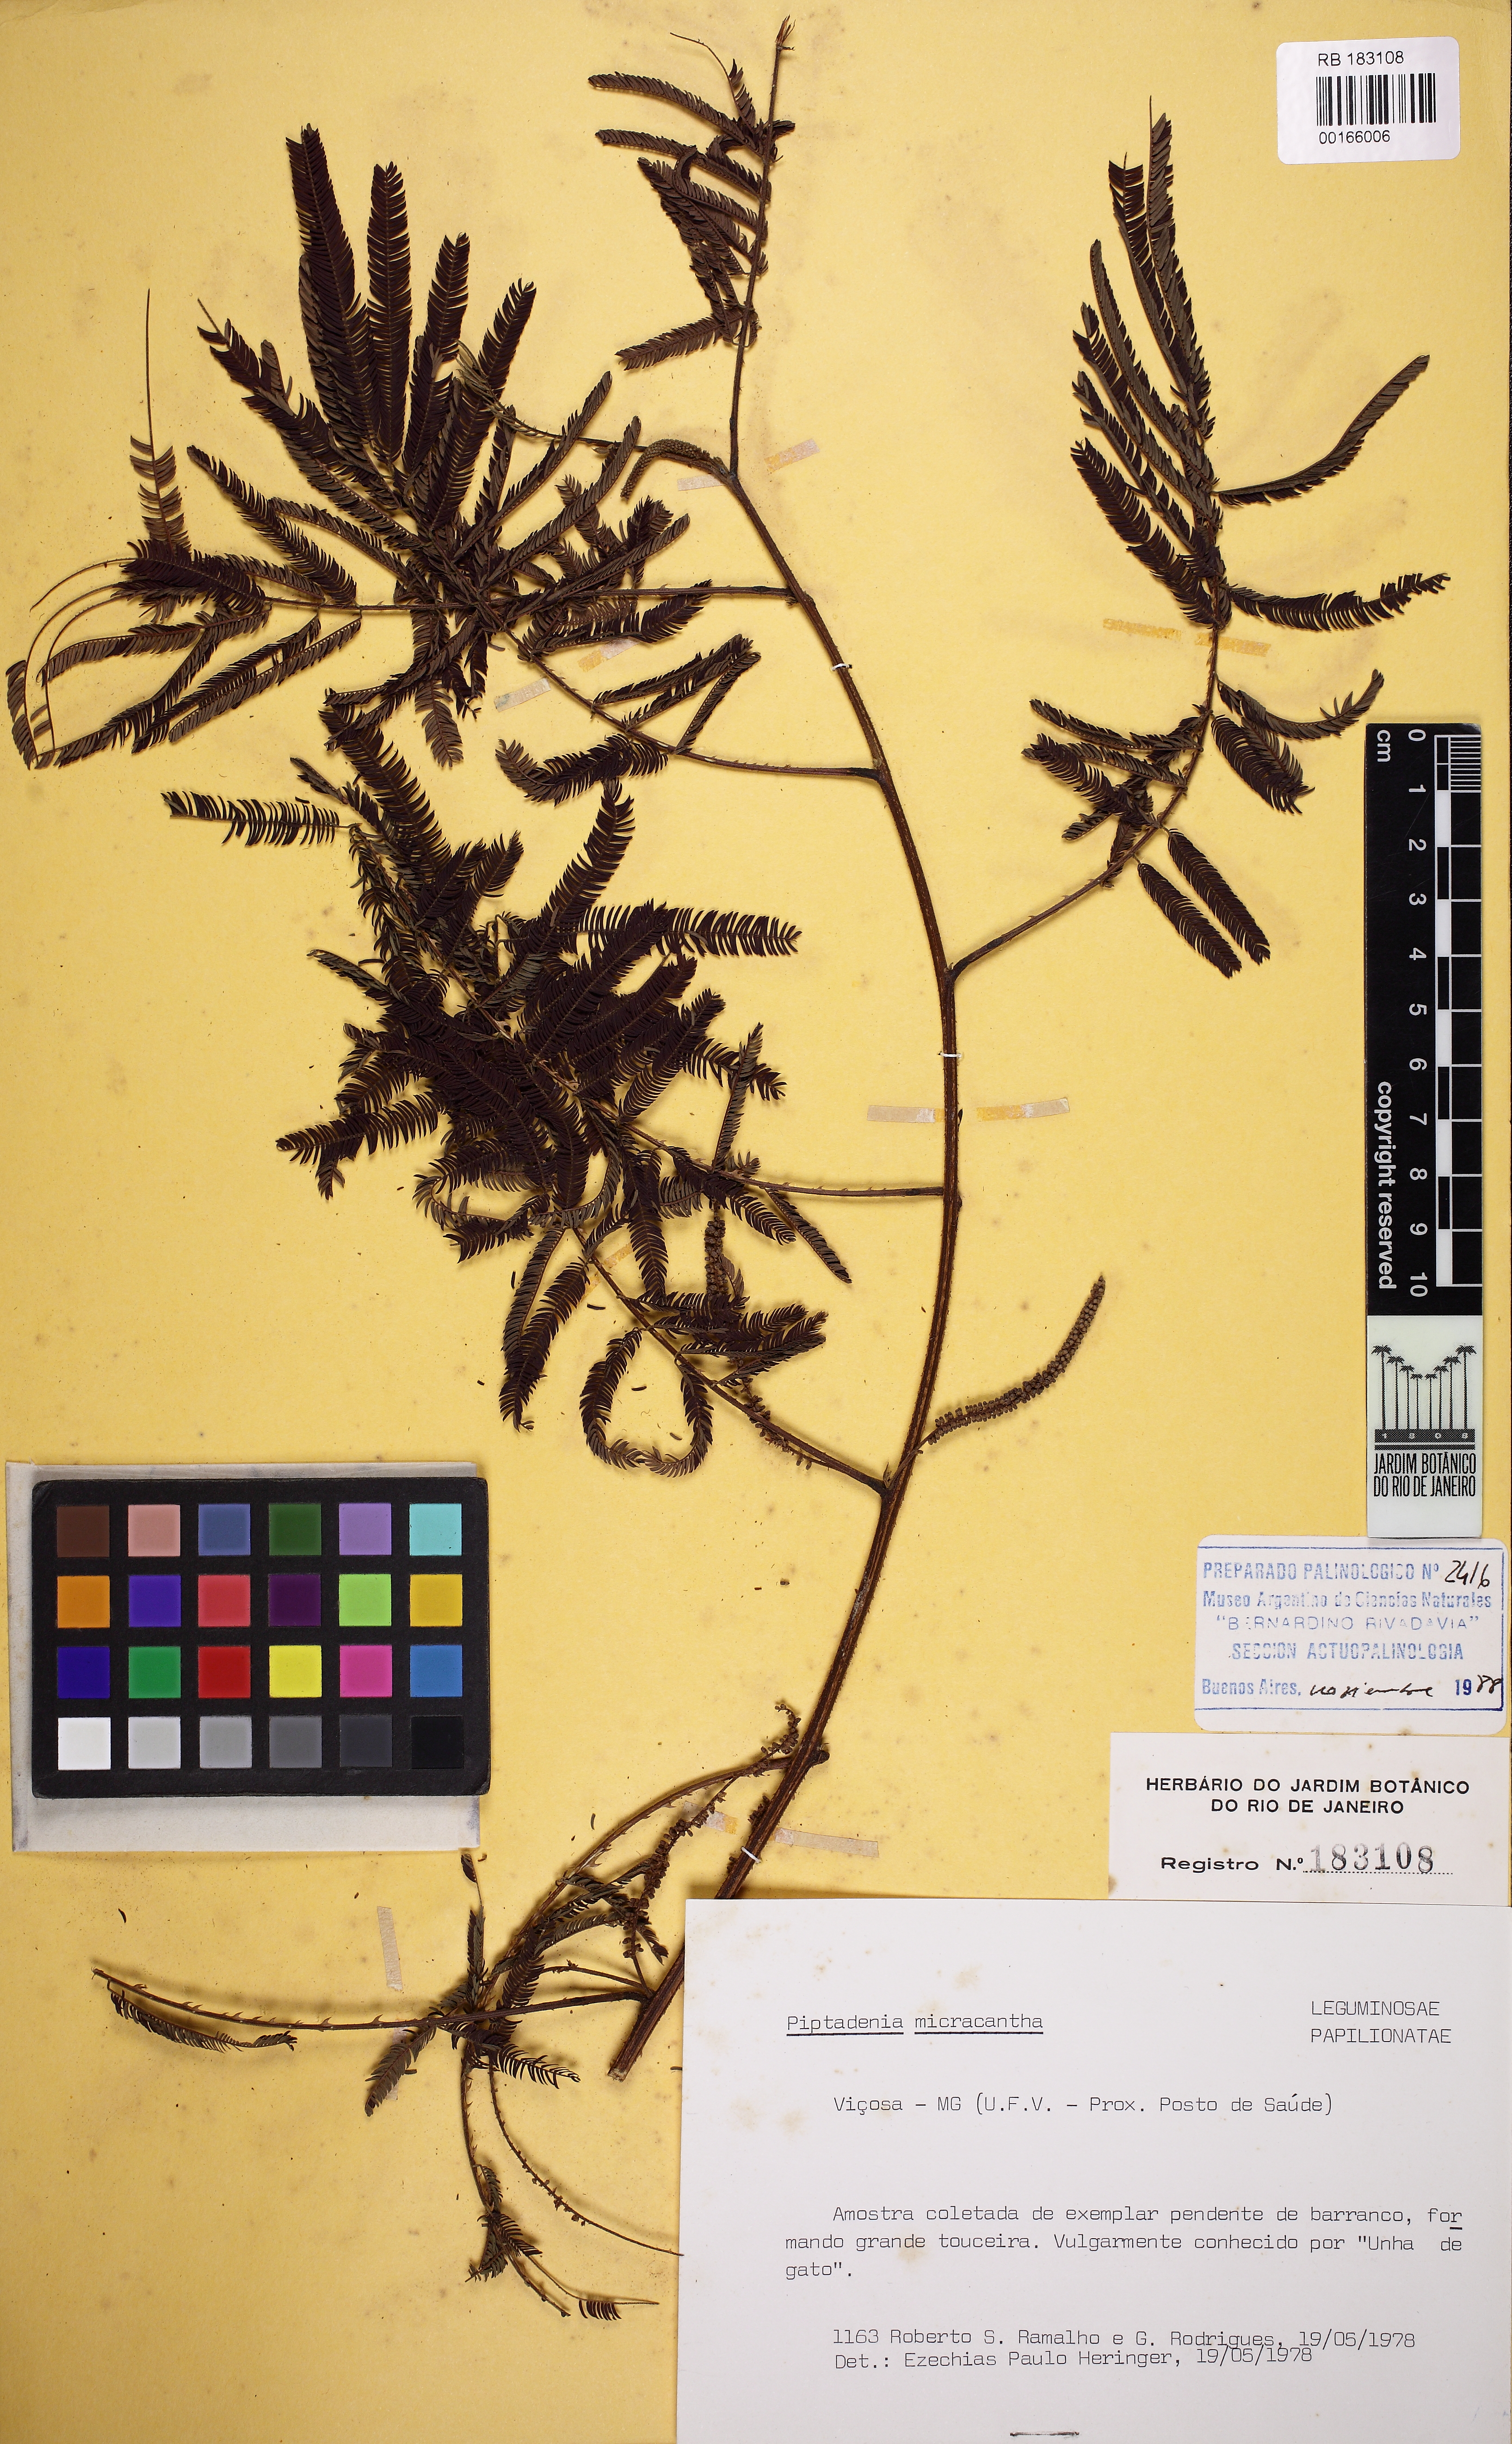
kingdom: Plantae
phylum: Tracheophyta
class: Magnoliopsida
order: Fabales
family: Fabaceae
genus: Piptadenia
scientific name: Piptadenia micracantha
